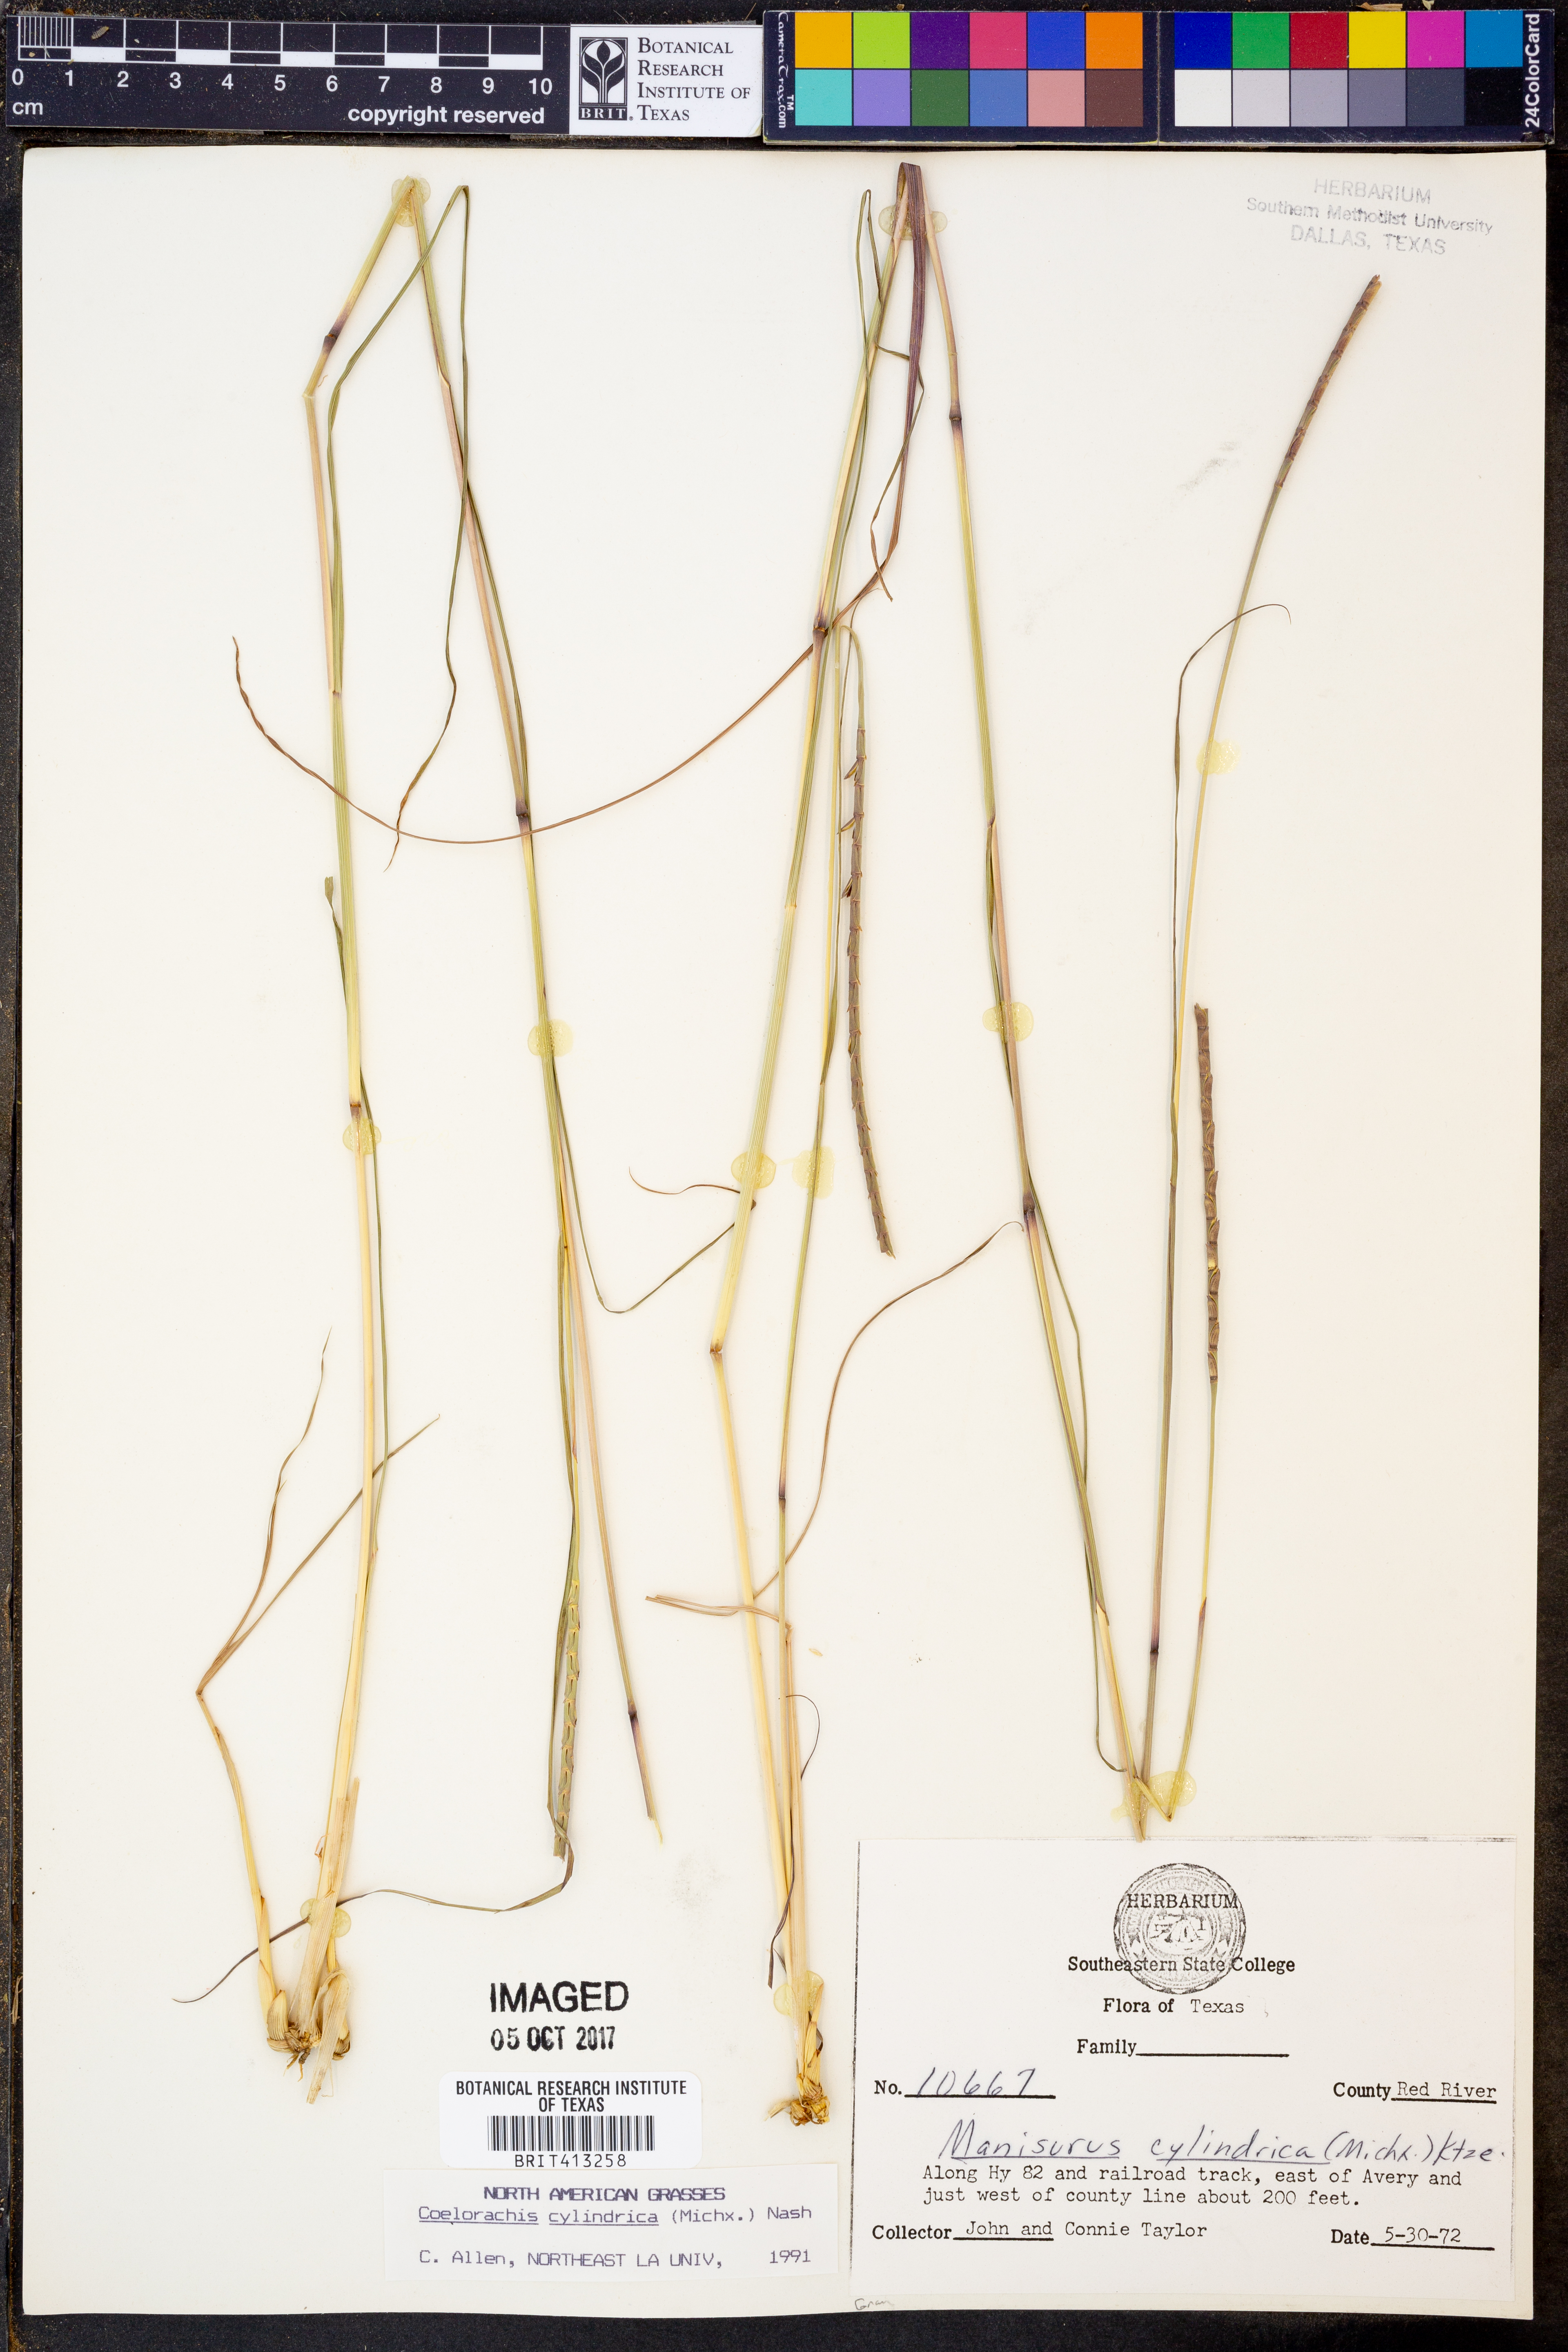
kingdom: Plantae
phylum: Tracheophyta
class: Liliopsida
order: Poales
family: Poaceae
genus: Rottboellia
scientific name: Rottboellia campestris
